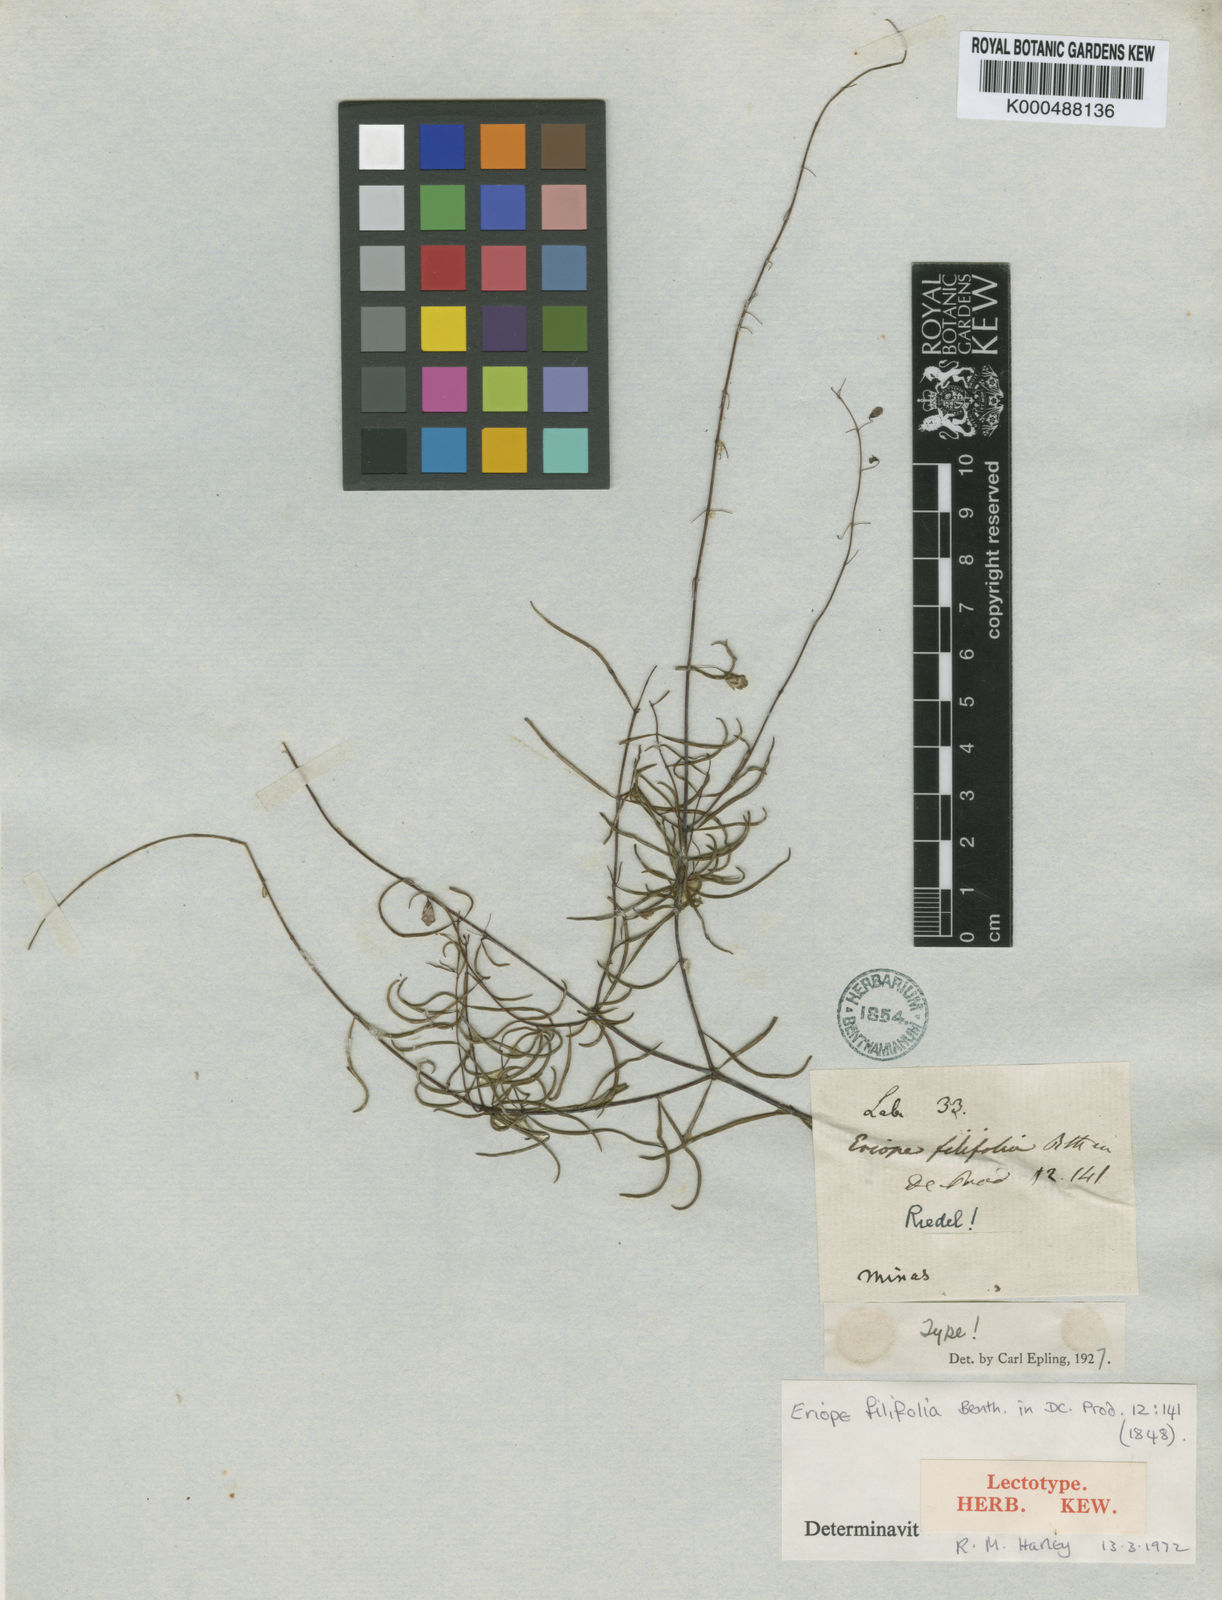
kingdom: Plantae
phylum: Tracheophyta
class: Magnoliopsida
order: Lamiales
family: Lamiaceae
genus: Eriope
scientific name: Eriope filifolia
